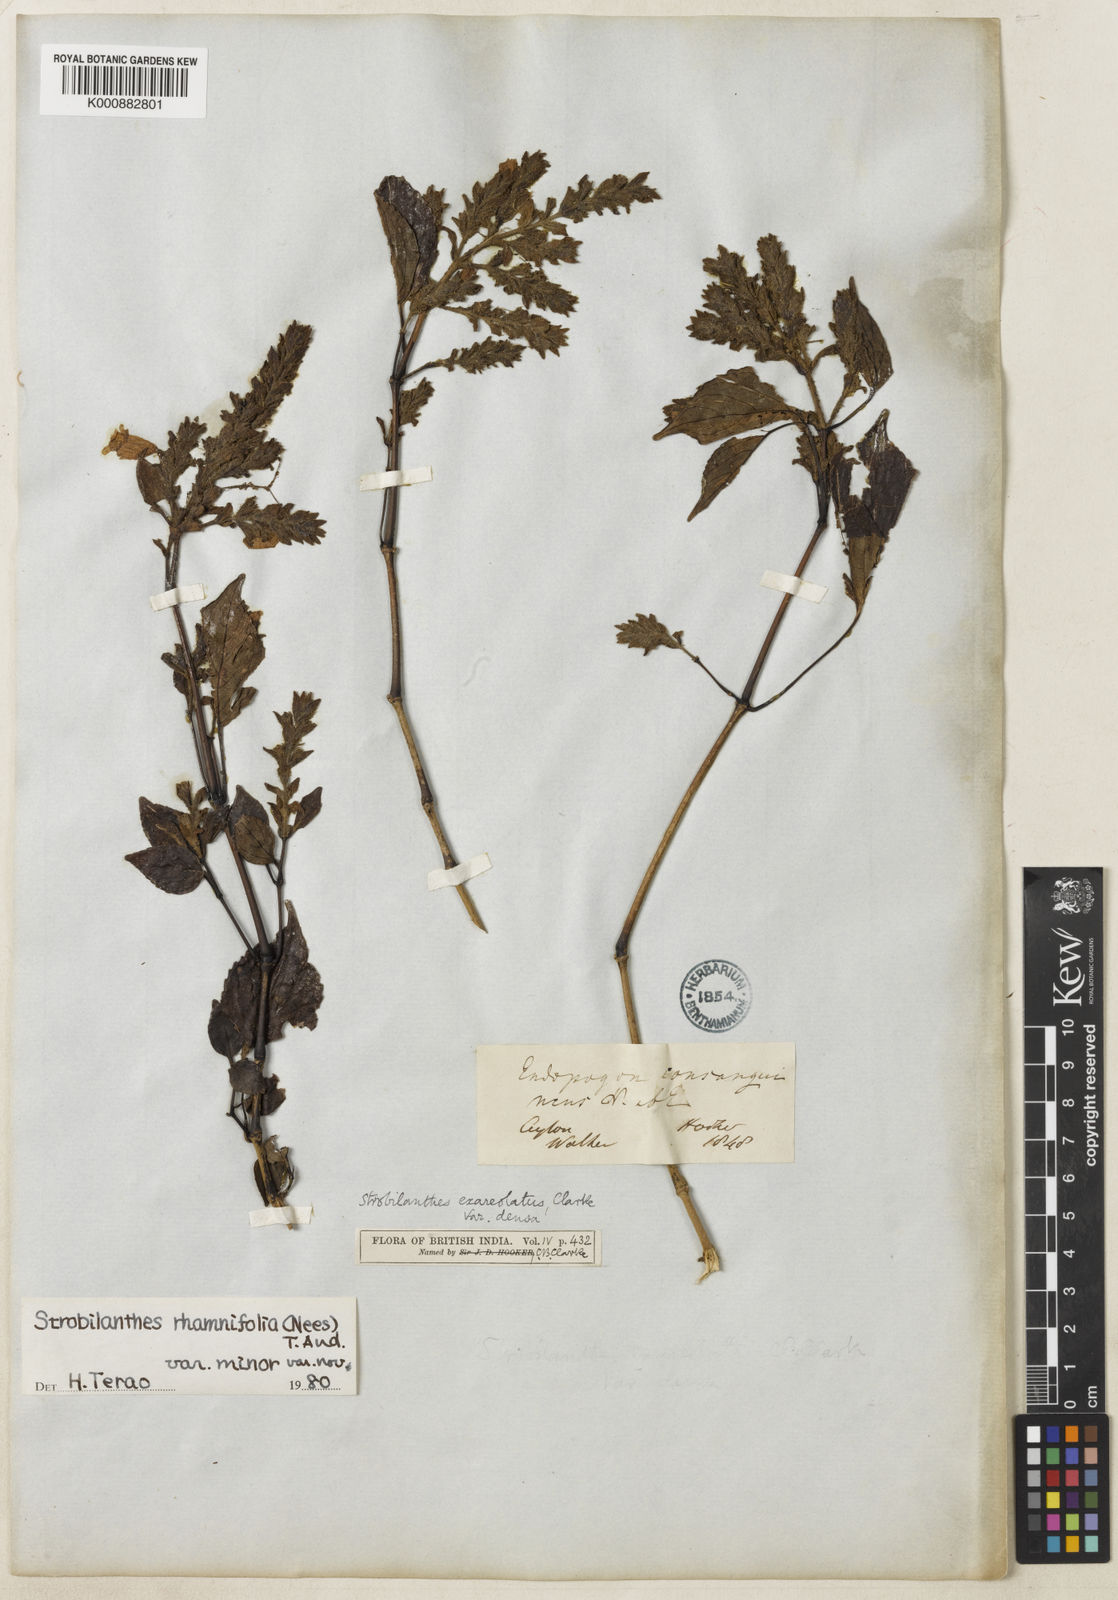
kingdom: Plantae
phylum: Tracheophyta
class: Magnoliopsida
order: Lamiales
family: Acanthaceae
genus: Strobilanthes
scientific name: Strobilanthes rhamnifolia
